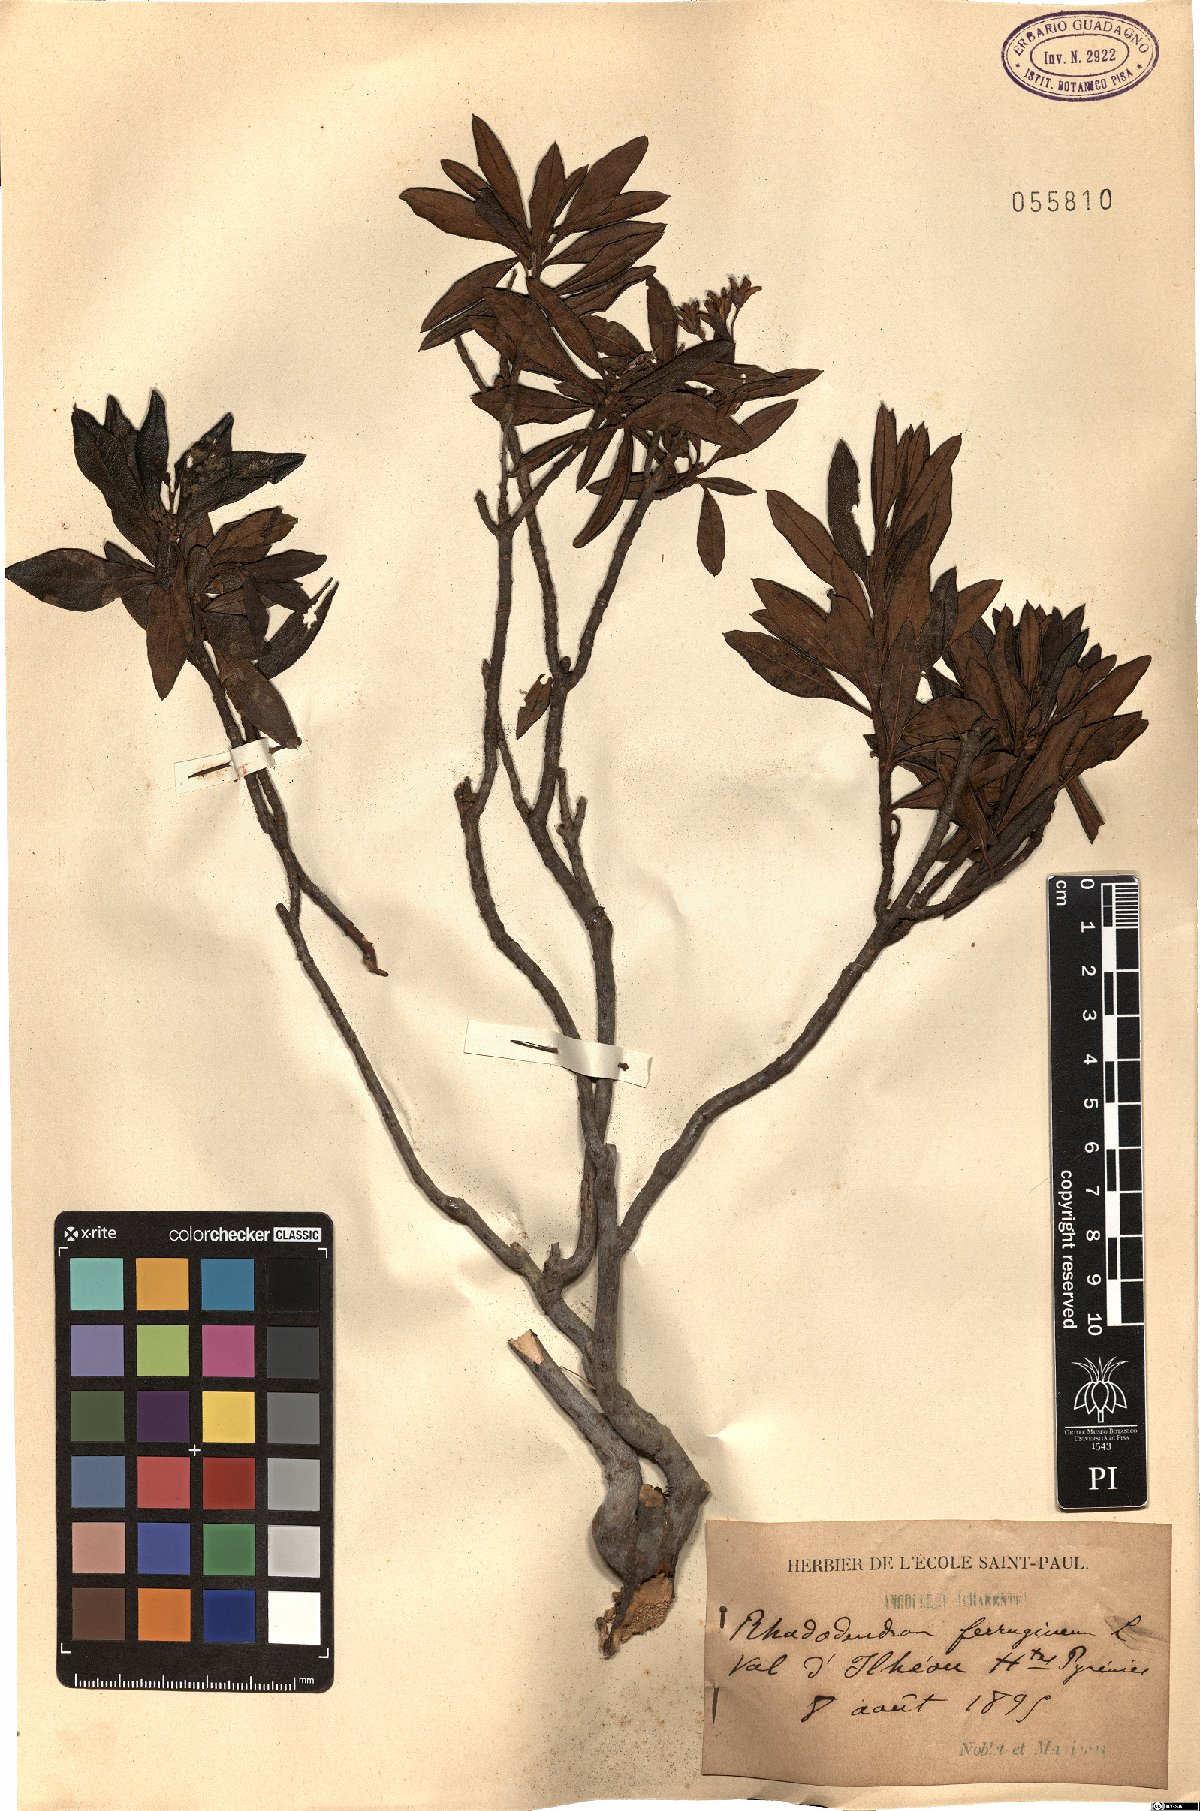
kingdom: Plantae
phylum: Tracheophyta
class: Magnoliopsida
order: Ericales
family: Ericaceae
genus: Rhododendron
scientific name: Rhododendron ferrugineum
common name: Alpenrose
